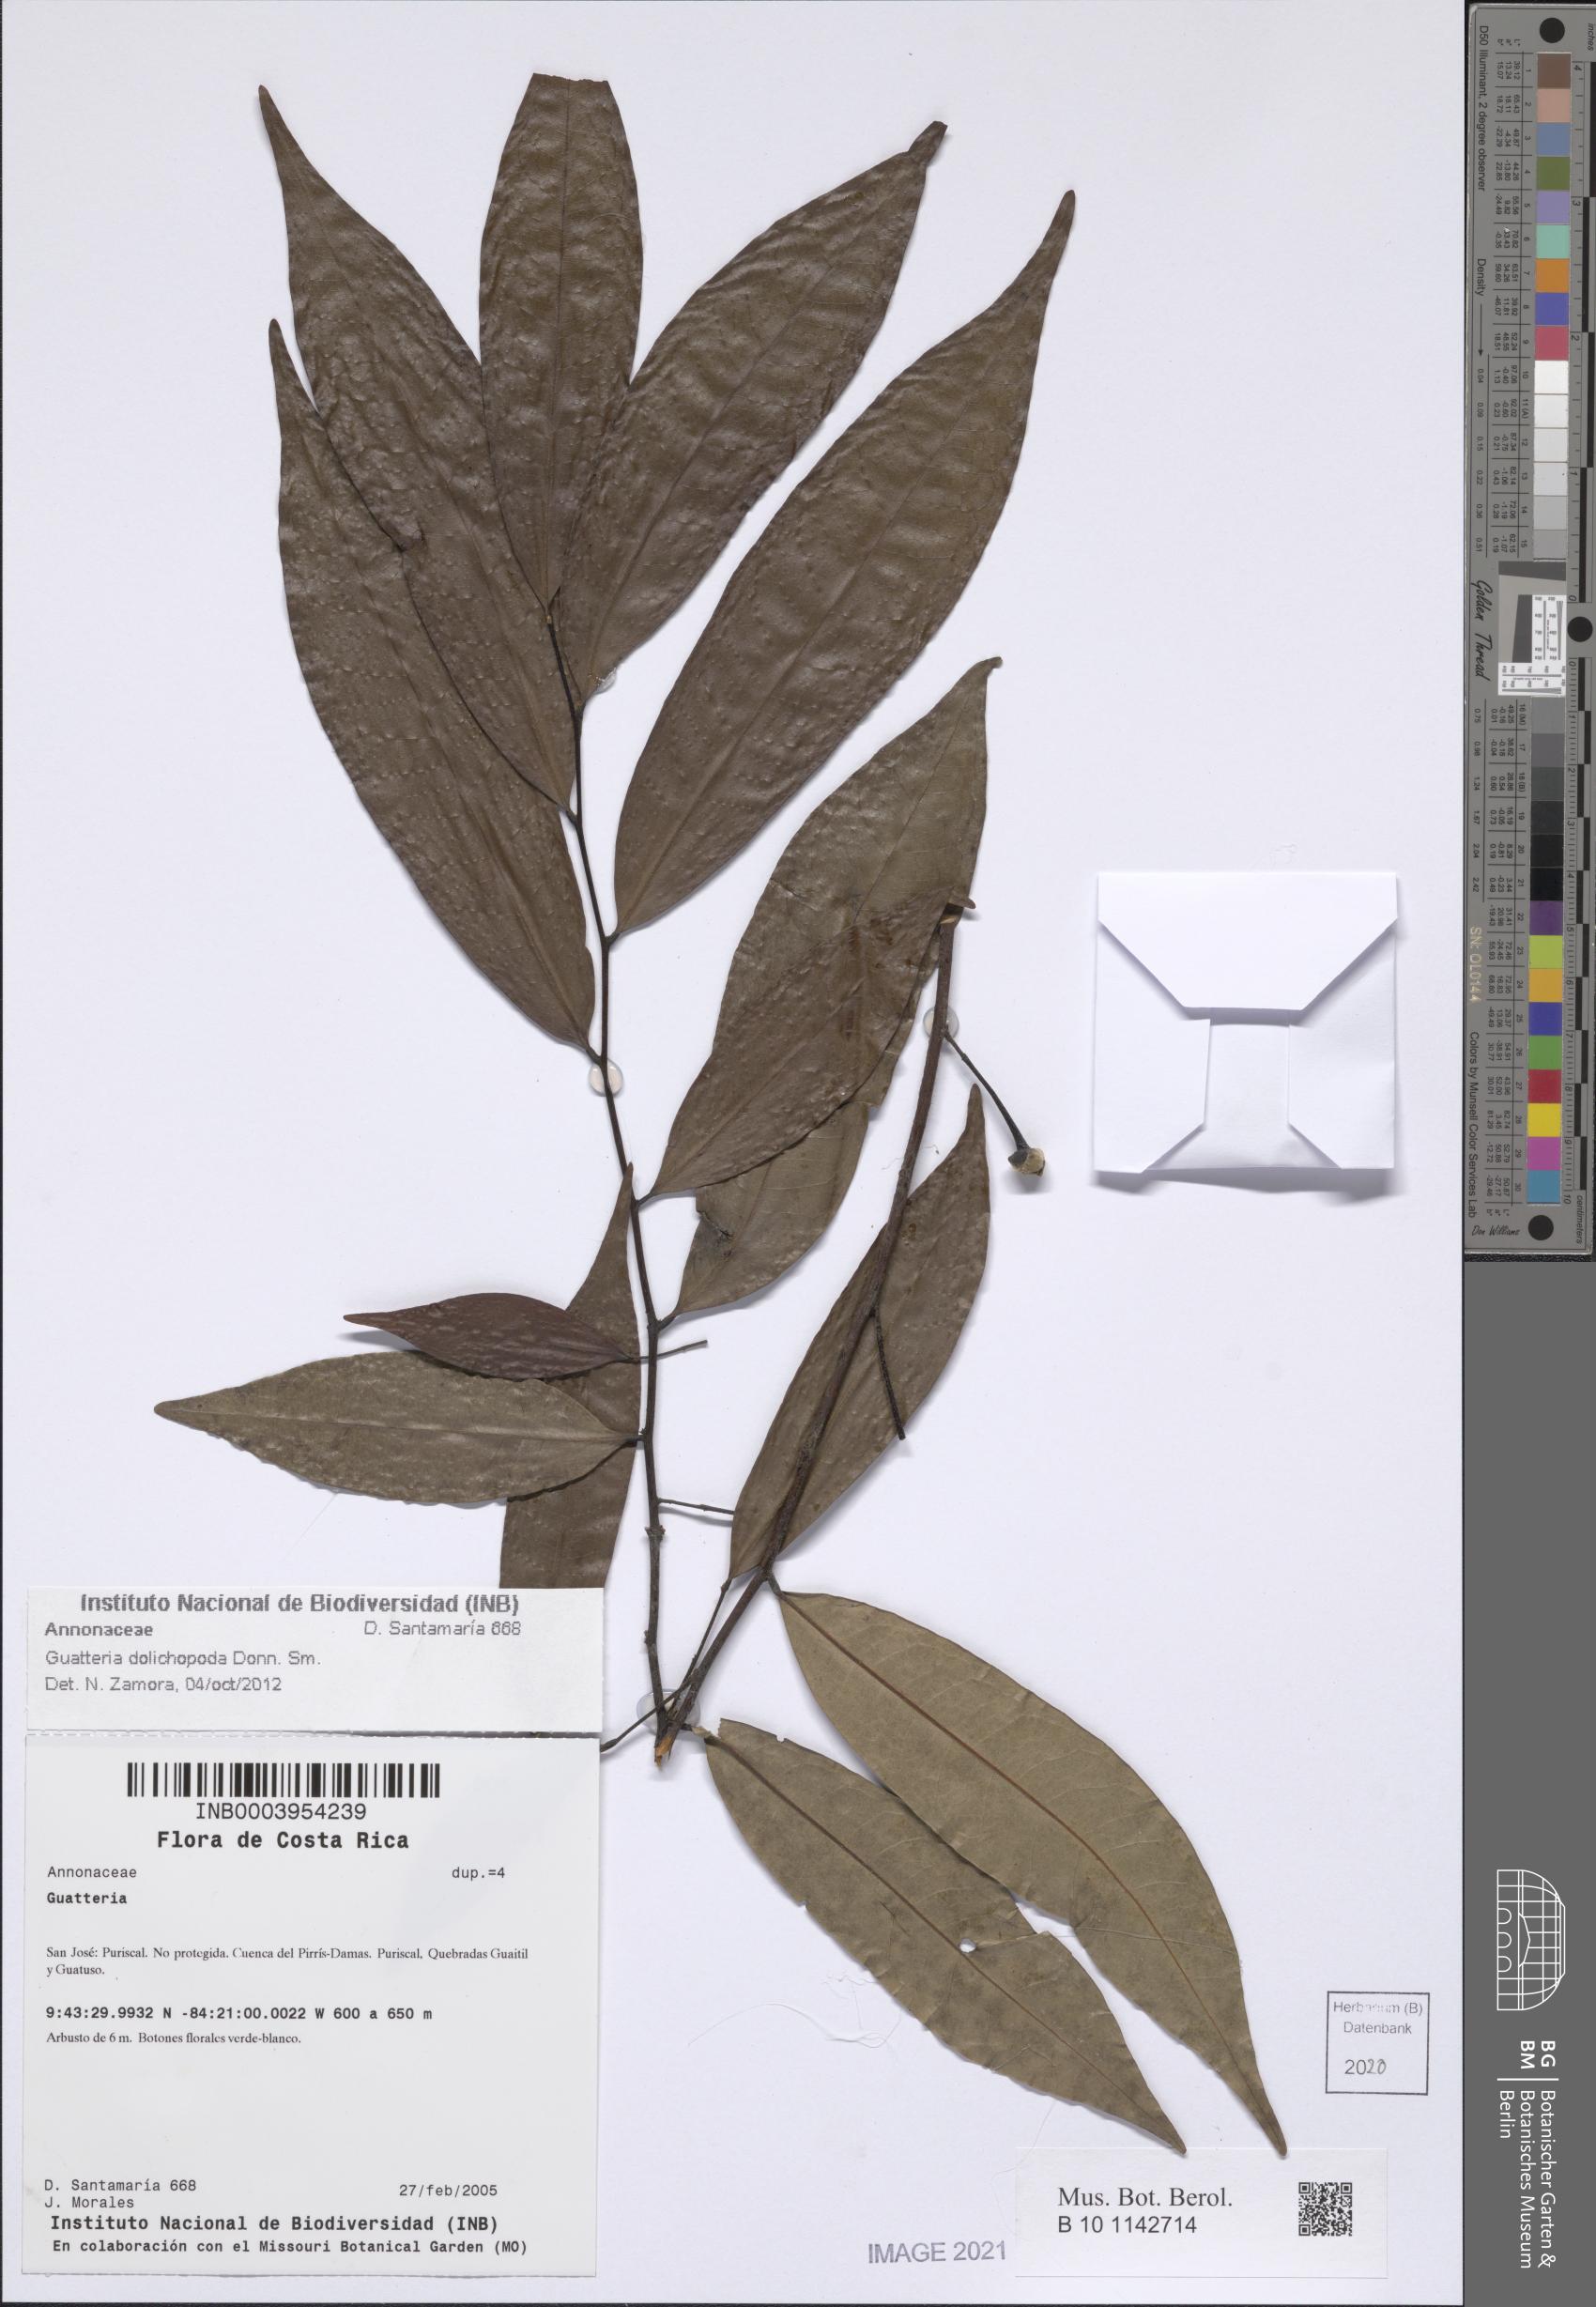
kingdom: Plantae
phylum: Tracheophyta
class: Magnoliopsida
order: Magnoliales
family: Annonaceae
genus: Guatteria
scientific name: Guatteria dolichopoda
